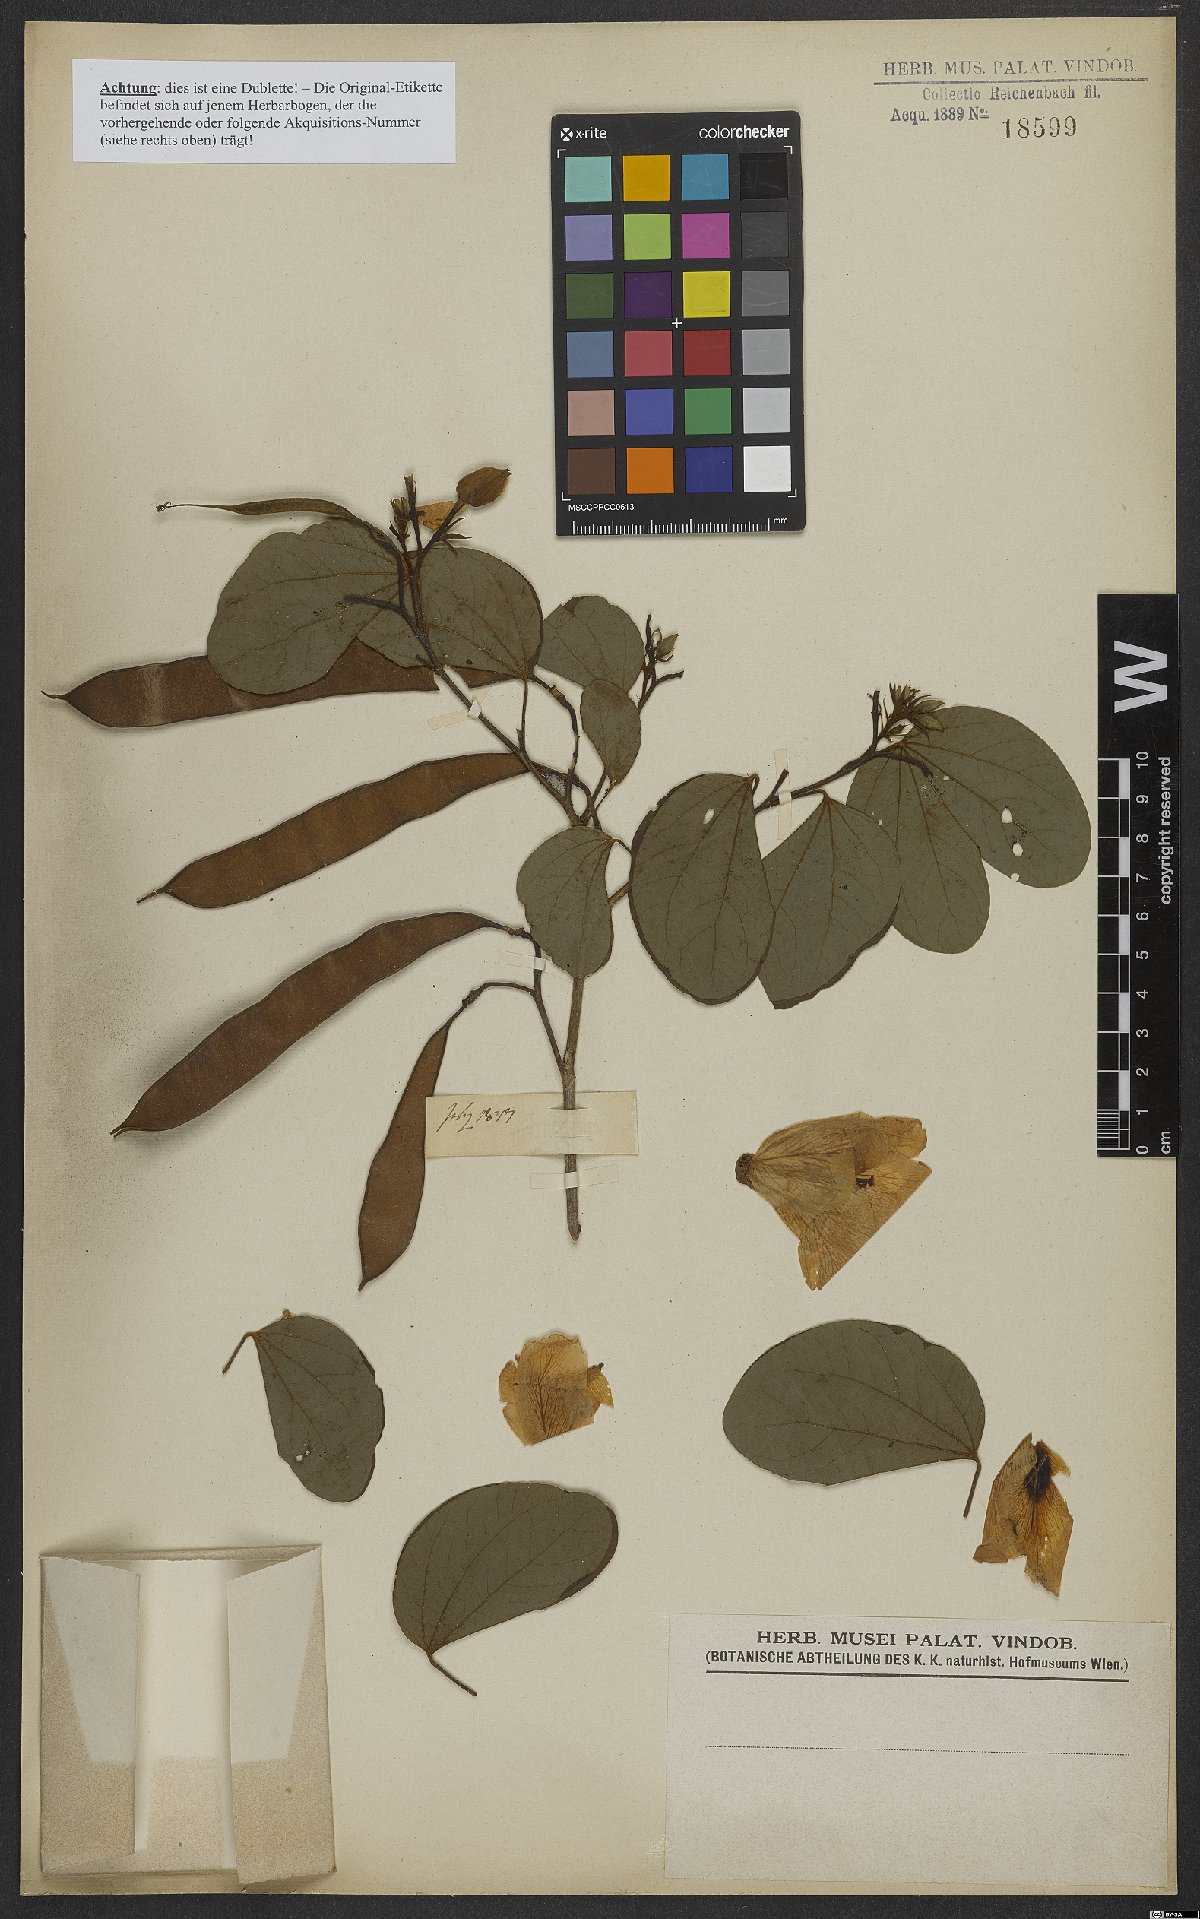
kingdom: Plantae
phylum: Tracheophyta
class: Magnoliopsida
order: Fabales
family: Fabaceae
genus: Bauhinia
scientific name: Bauhinia
